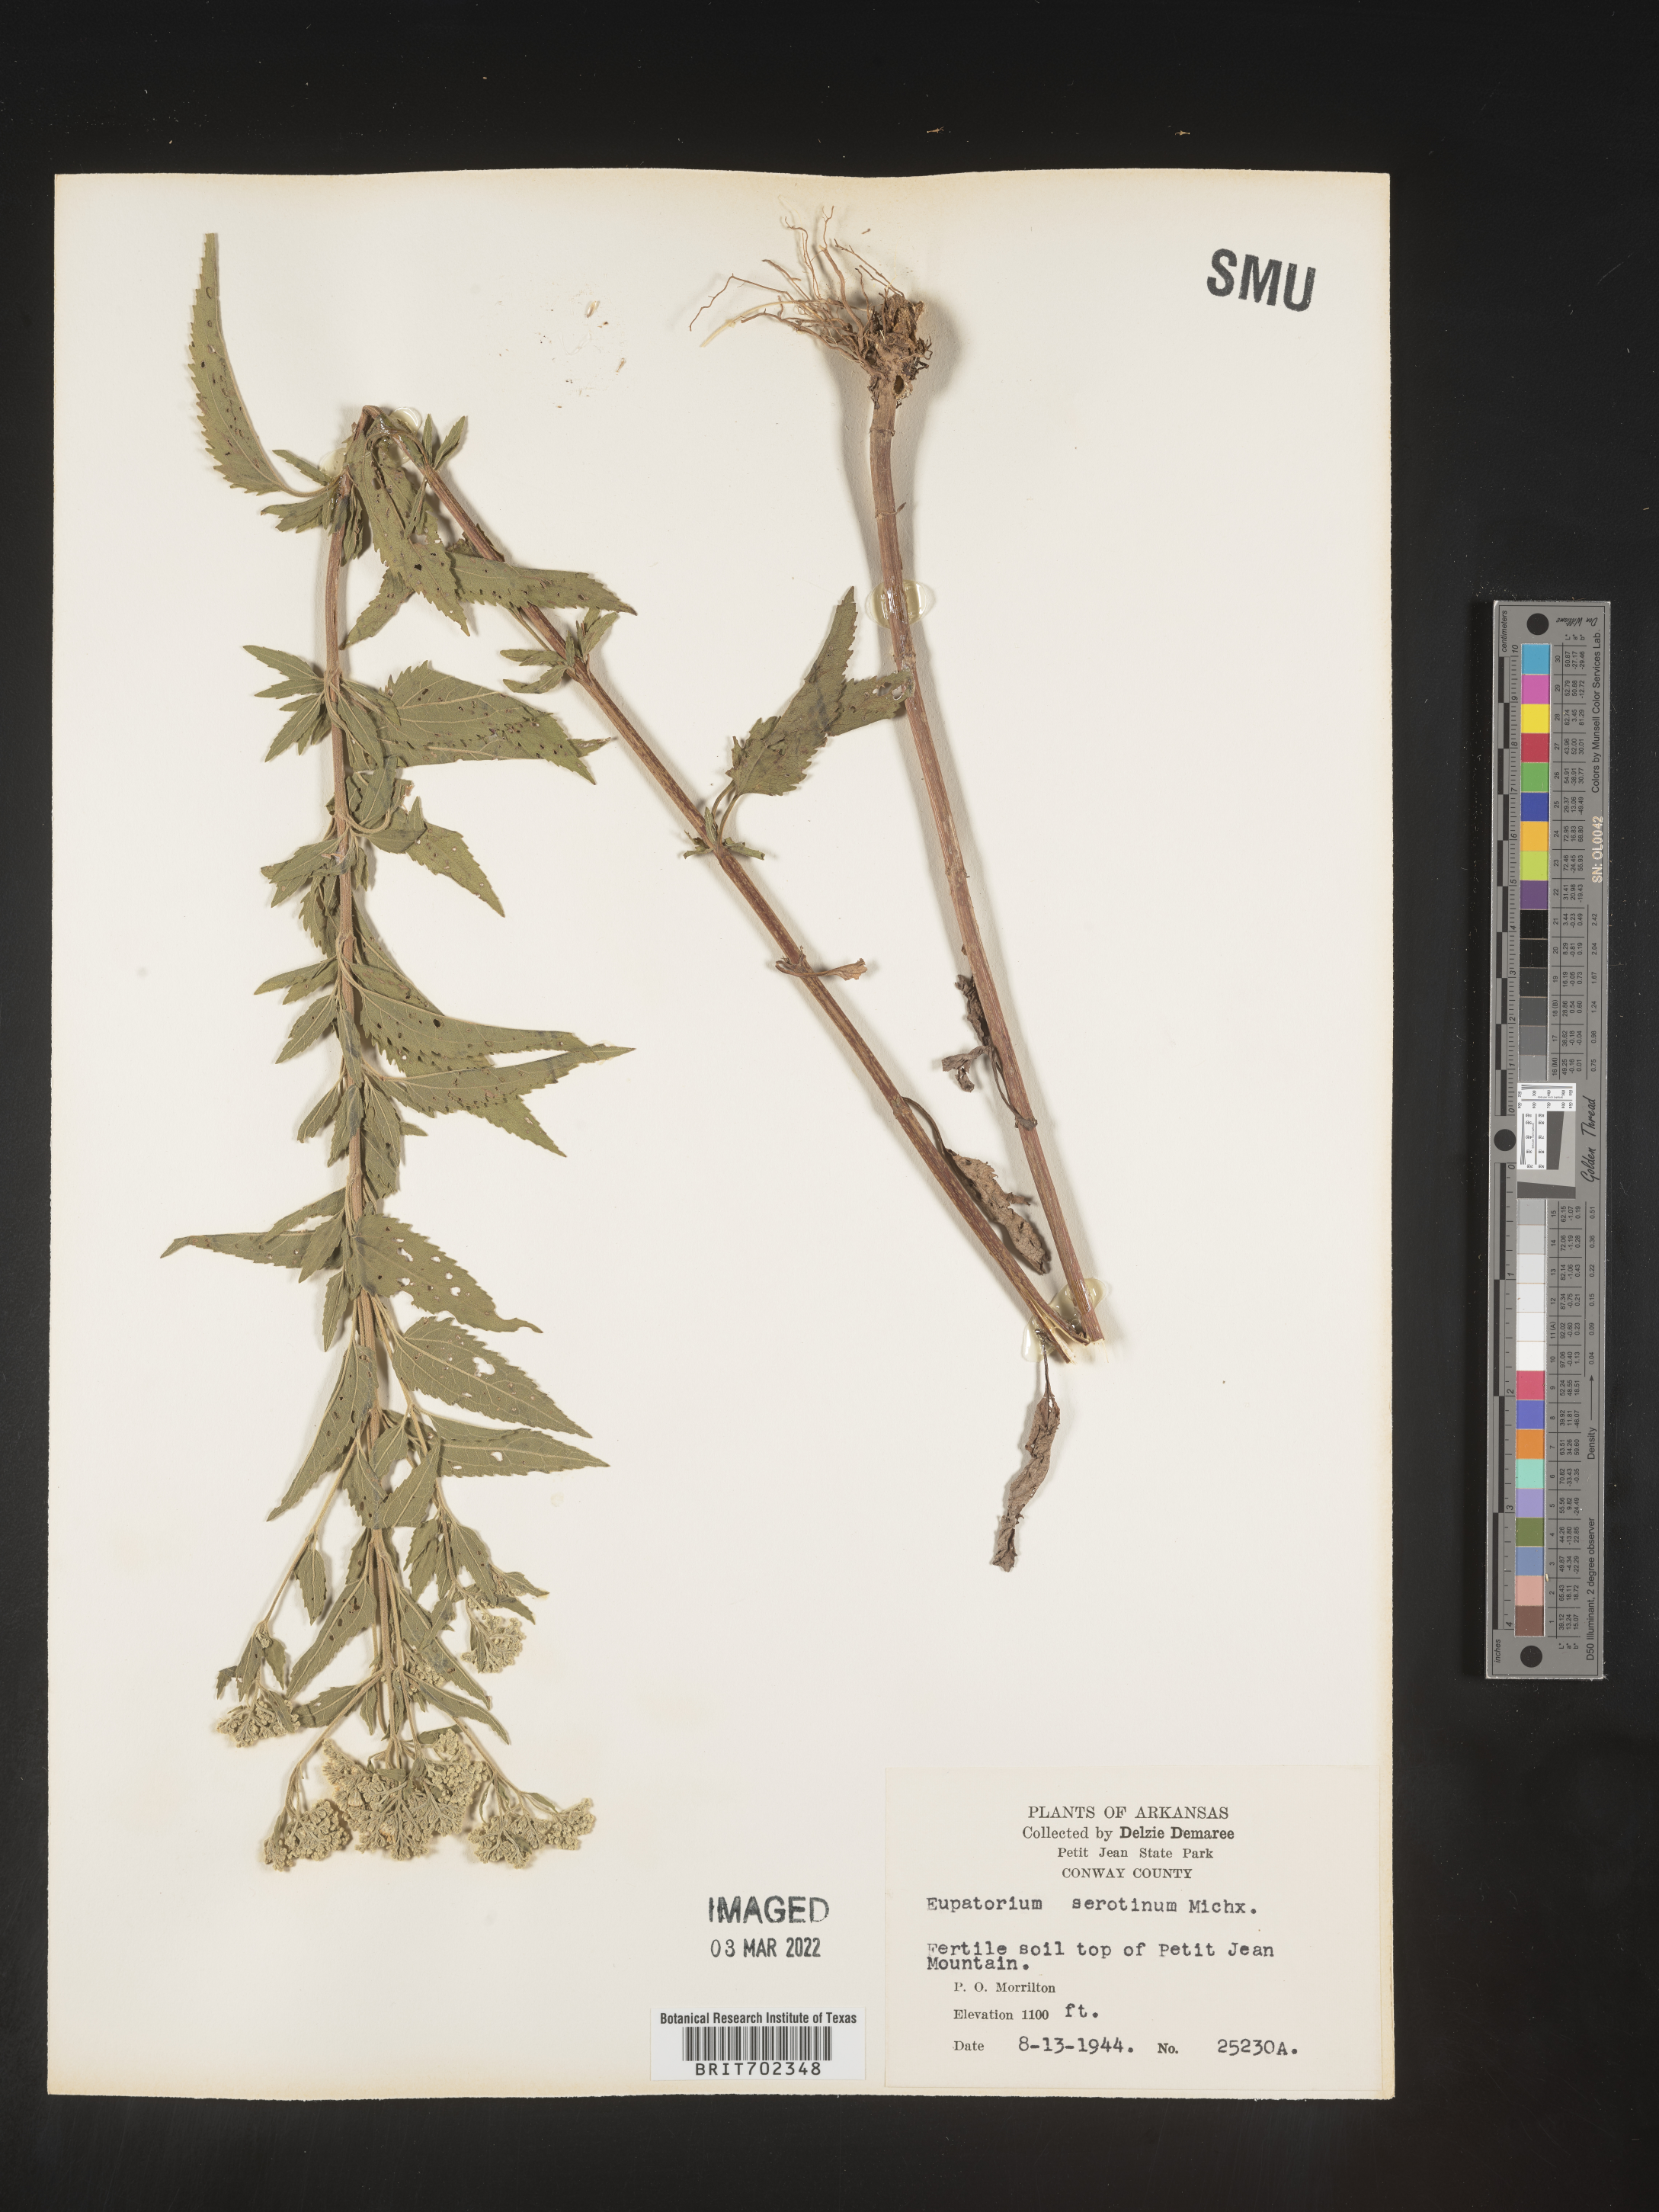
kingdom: Plantae
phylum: Tracheophyta
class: Magnoliopsida
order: Asterales
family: Asteraceae
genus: Eupatorium
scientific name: Eupatorium serotinum
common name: Late boneset
